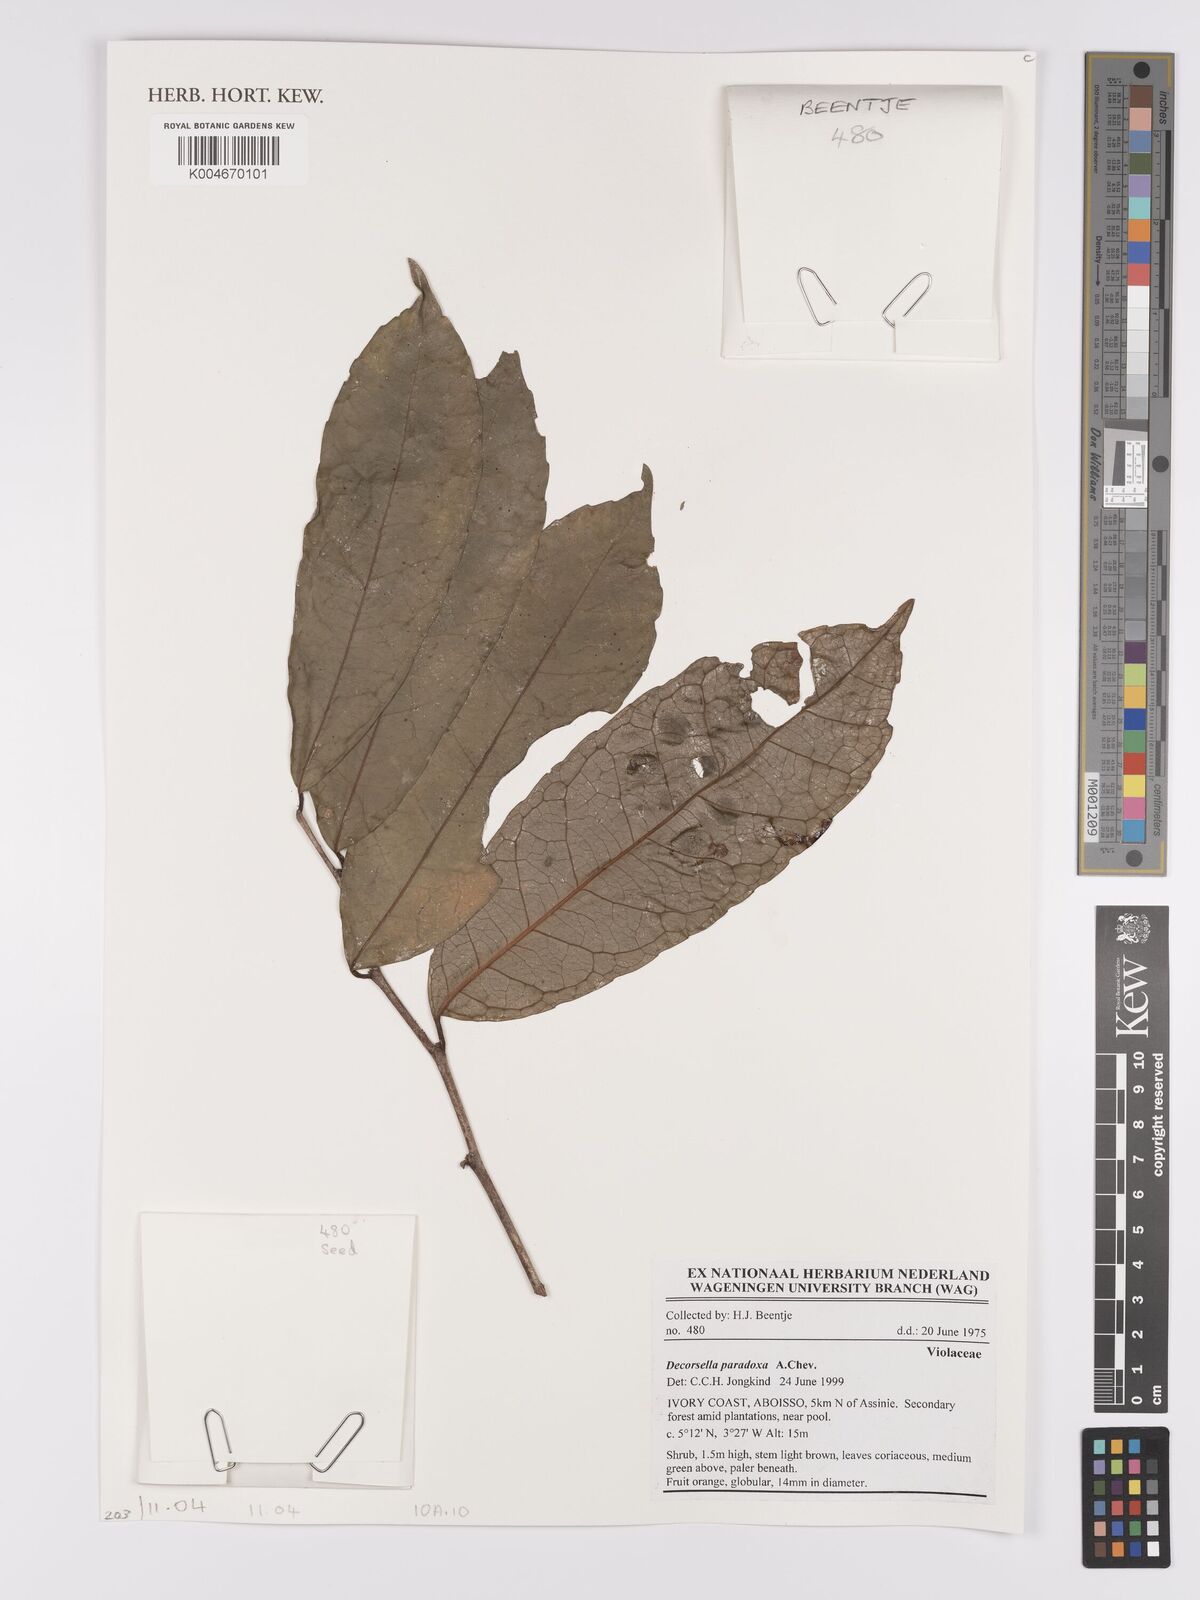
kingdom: Plantae
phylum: Tracheophyta
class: Magnoliopsida
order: Malpighiales
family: Violaceae
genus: Decorsella
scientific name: Decorsella paradoxa
